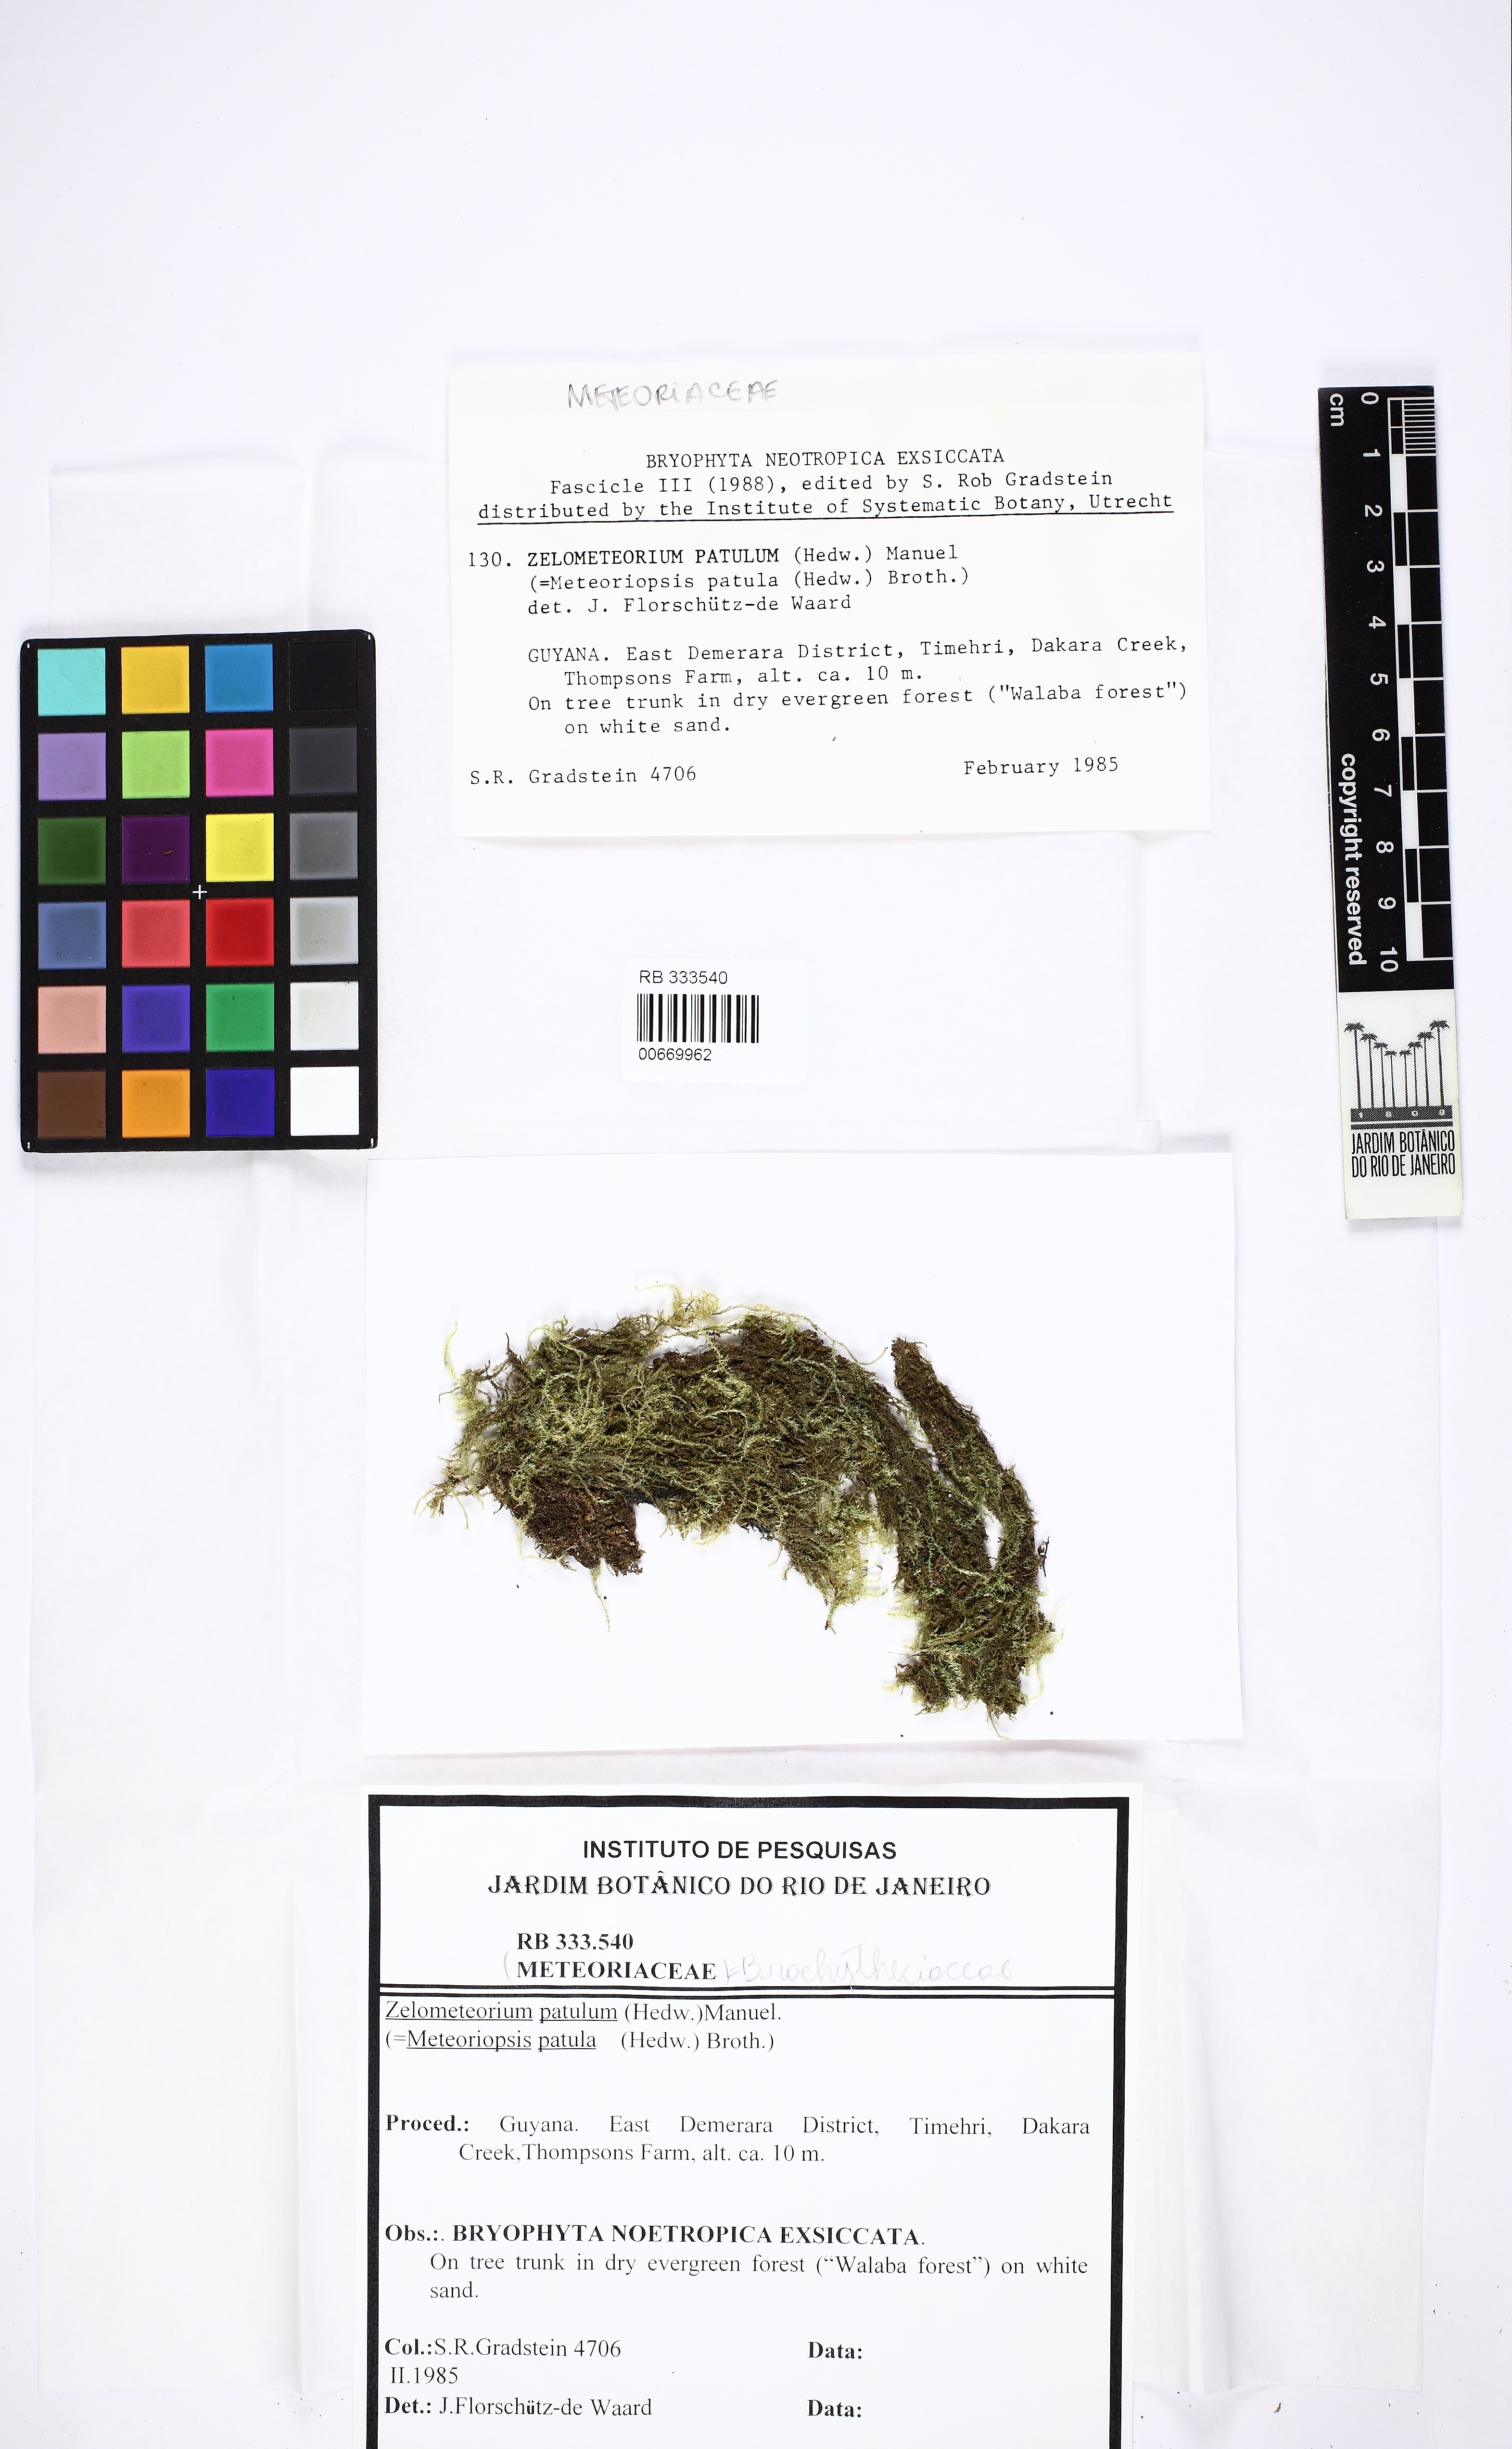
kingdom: Plantae
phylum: Bryophyta
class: Bryopsida
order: Hypnales
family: Brachytheciaceae
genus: Zelometeorium
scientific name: Zelometeorium patulum
